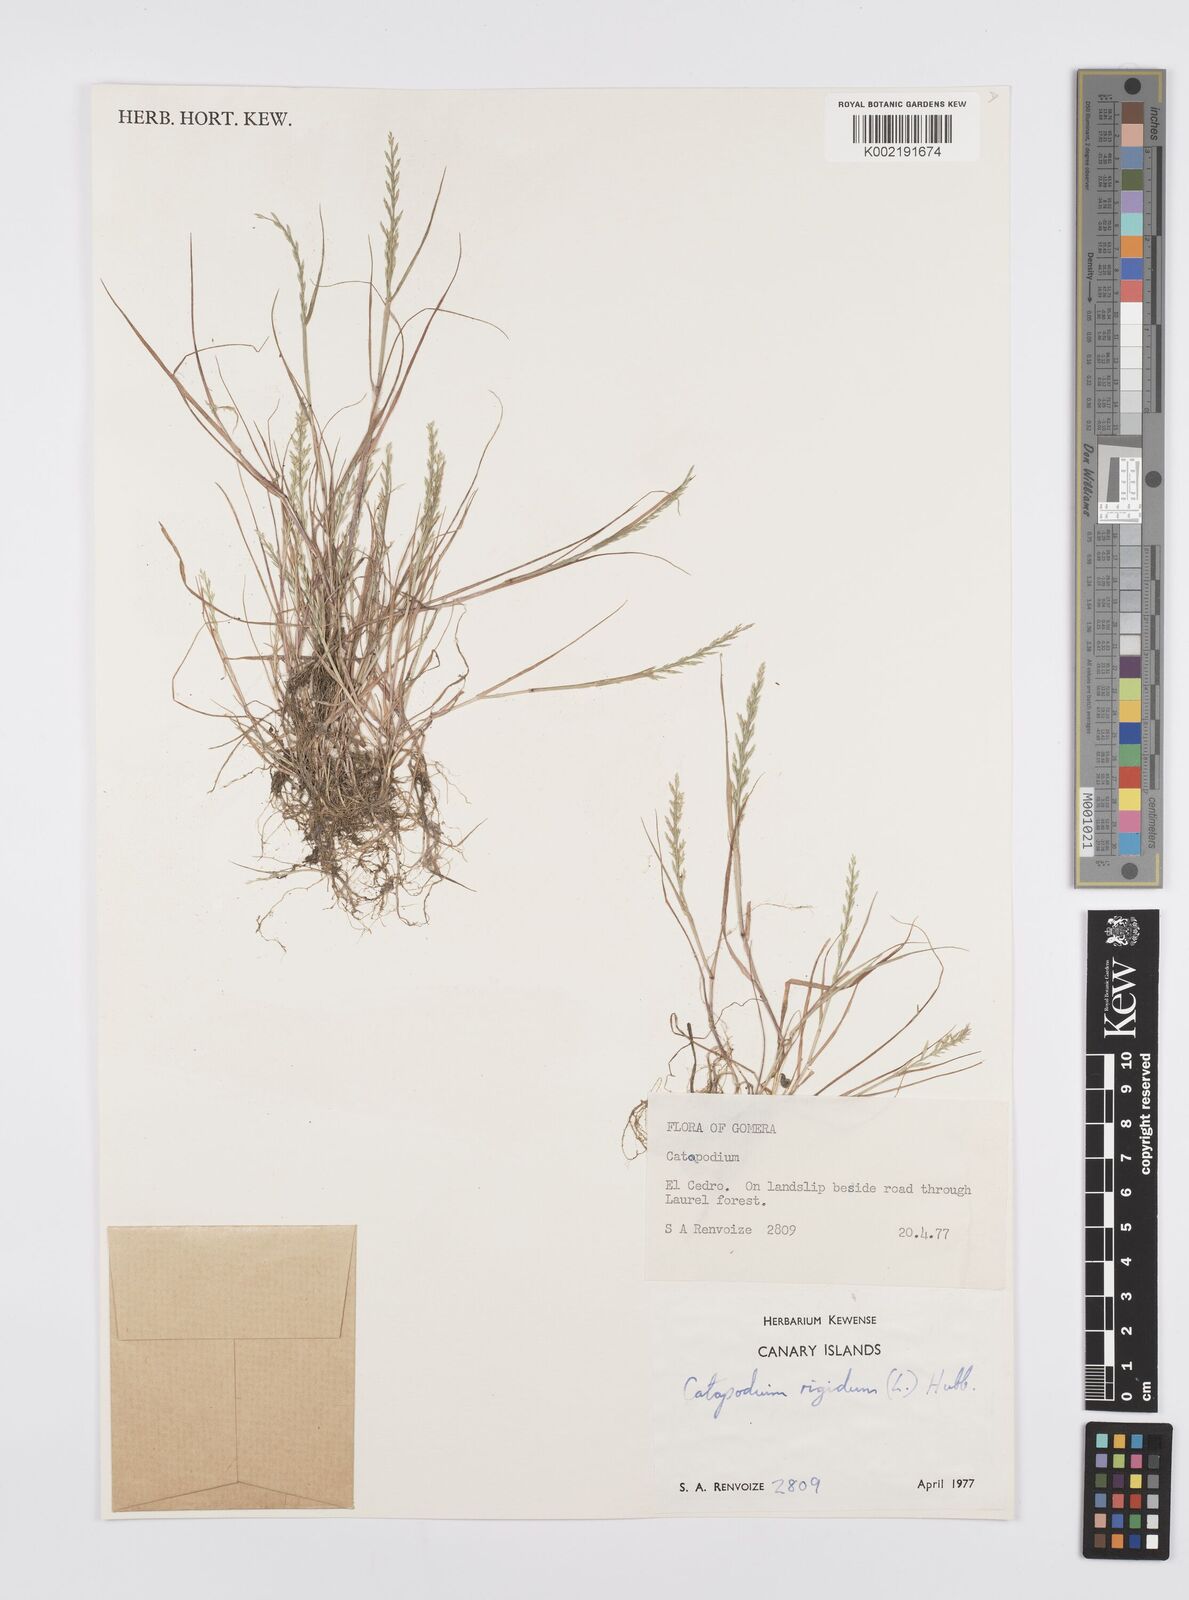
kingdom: Plantae
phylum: Tracheophyta
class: Liliopsida
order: Poales
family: Poaceae
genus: Catapodium
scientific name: Catapodium rigidum
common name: Fern-grass
